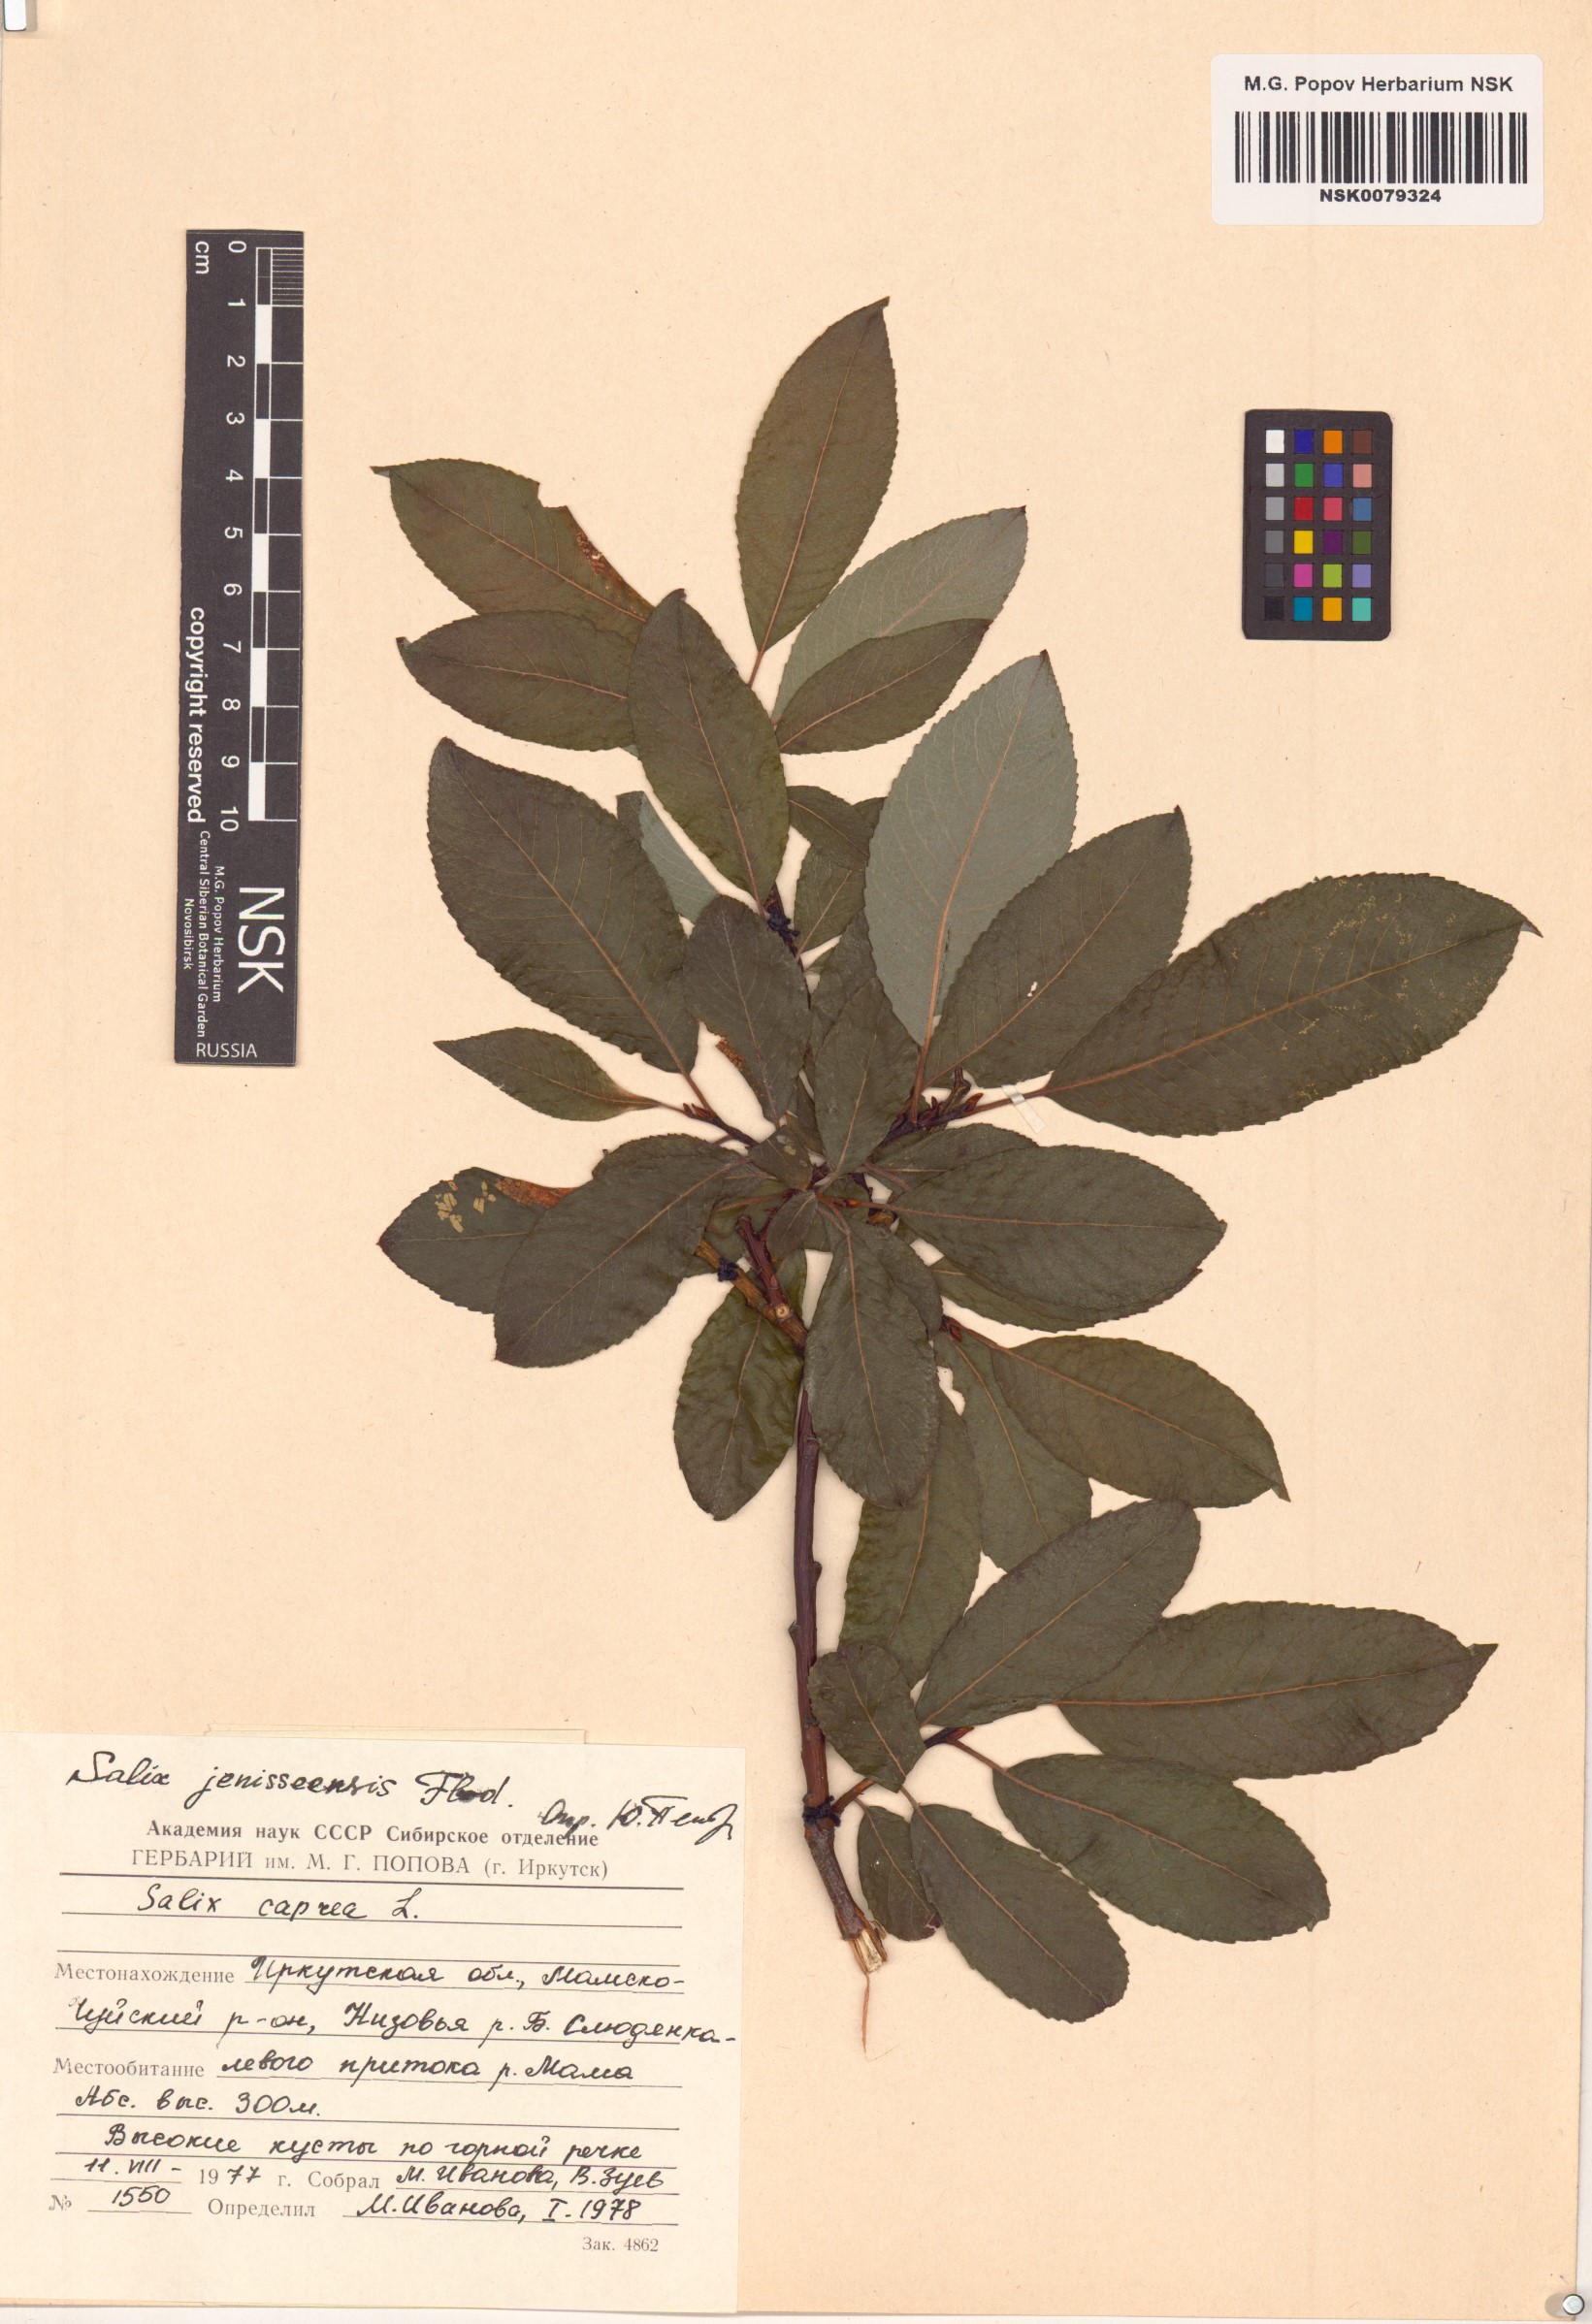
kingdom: Plantae
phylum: Tracheophyta
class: Magnoliopsida
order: Malpighiales
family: Salicaceae
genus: Salix
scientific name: Salix jenisseensis
